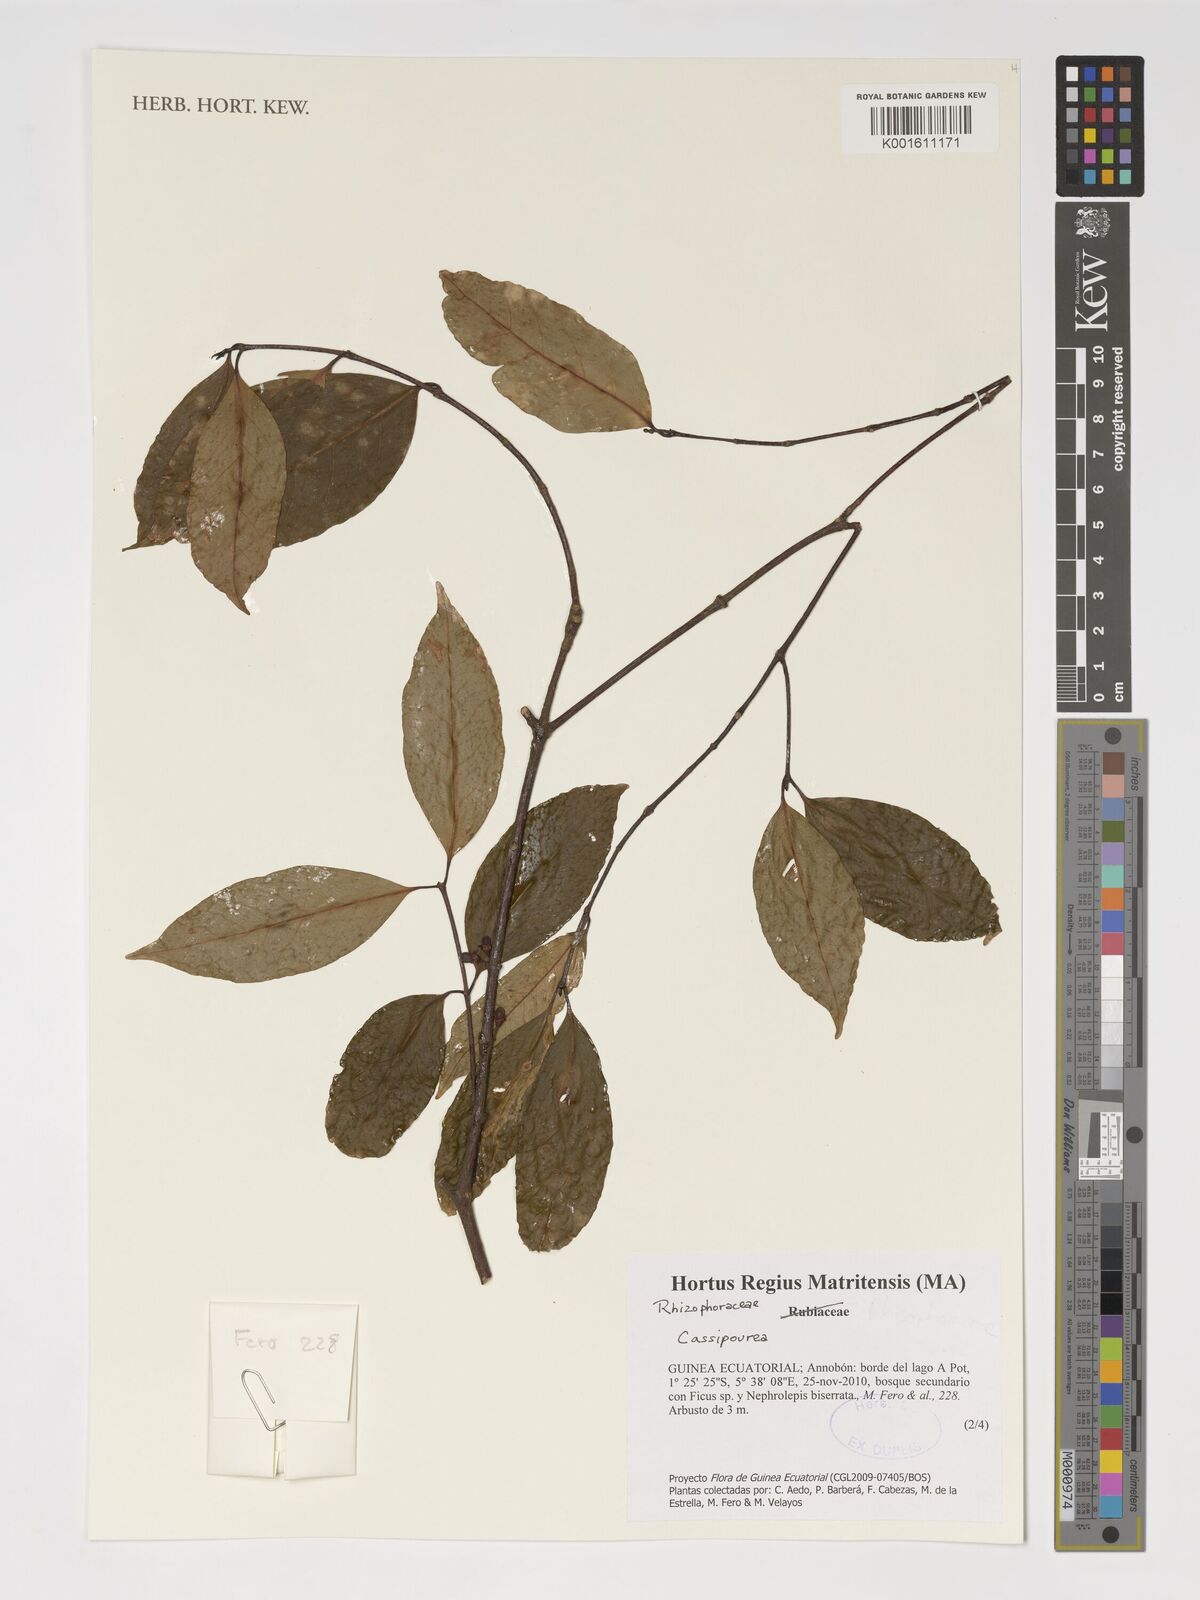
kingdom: Plantae
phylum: Tracheophyta
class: Magnoliopsida
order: Malpighiales
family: Rhizophoraceae
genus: Cassipourea
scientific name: Cassipourea
